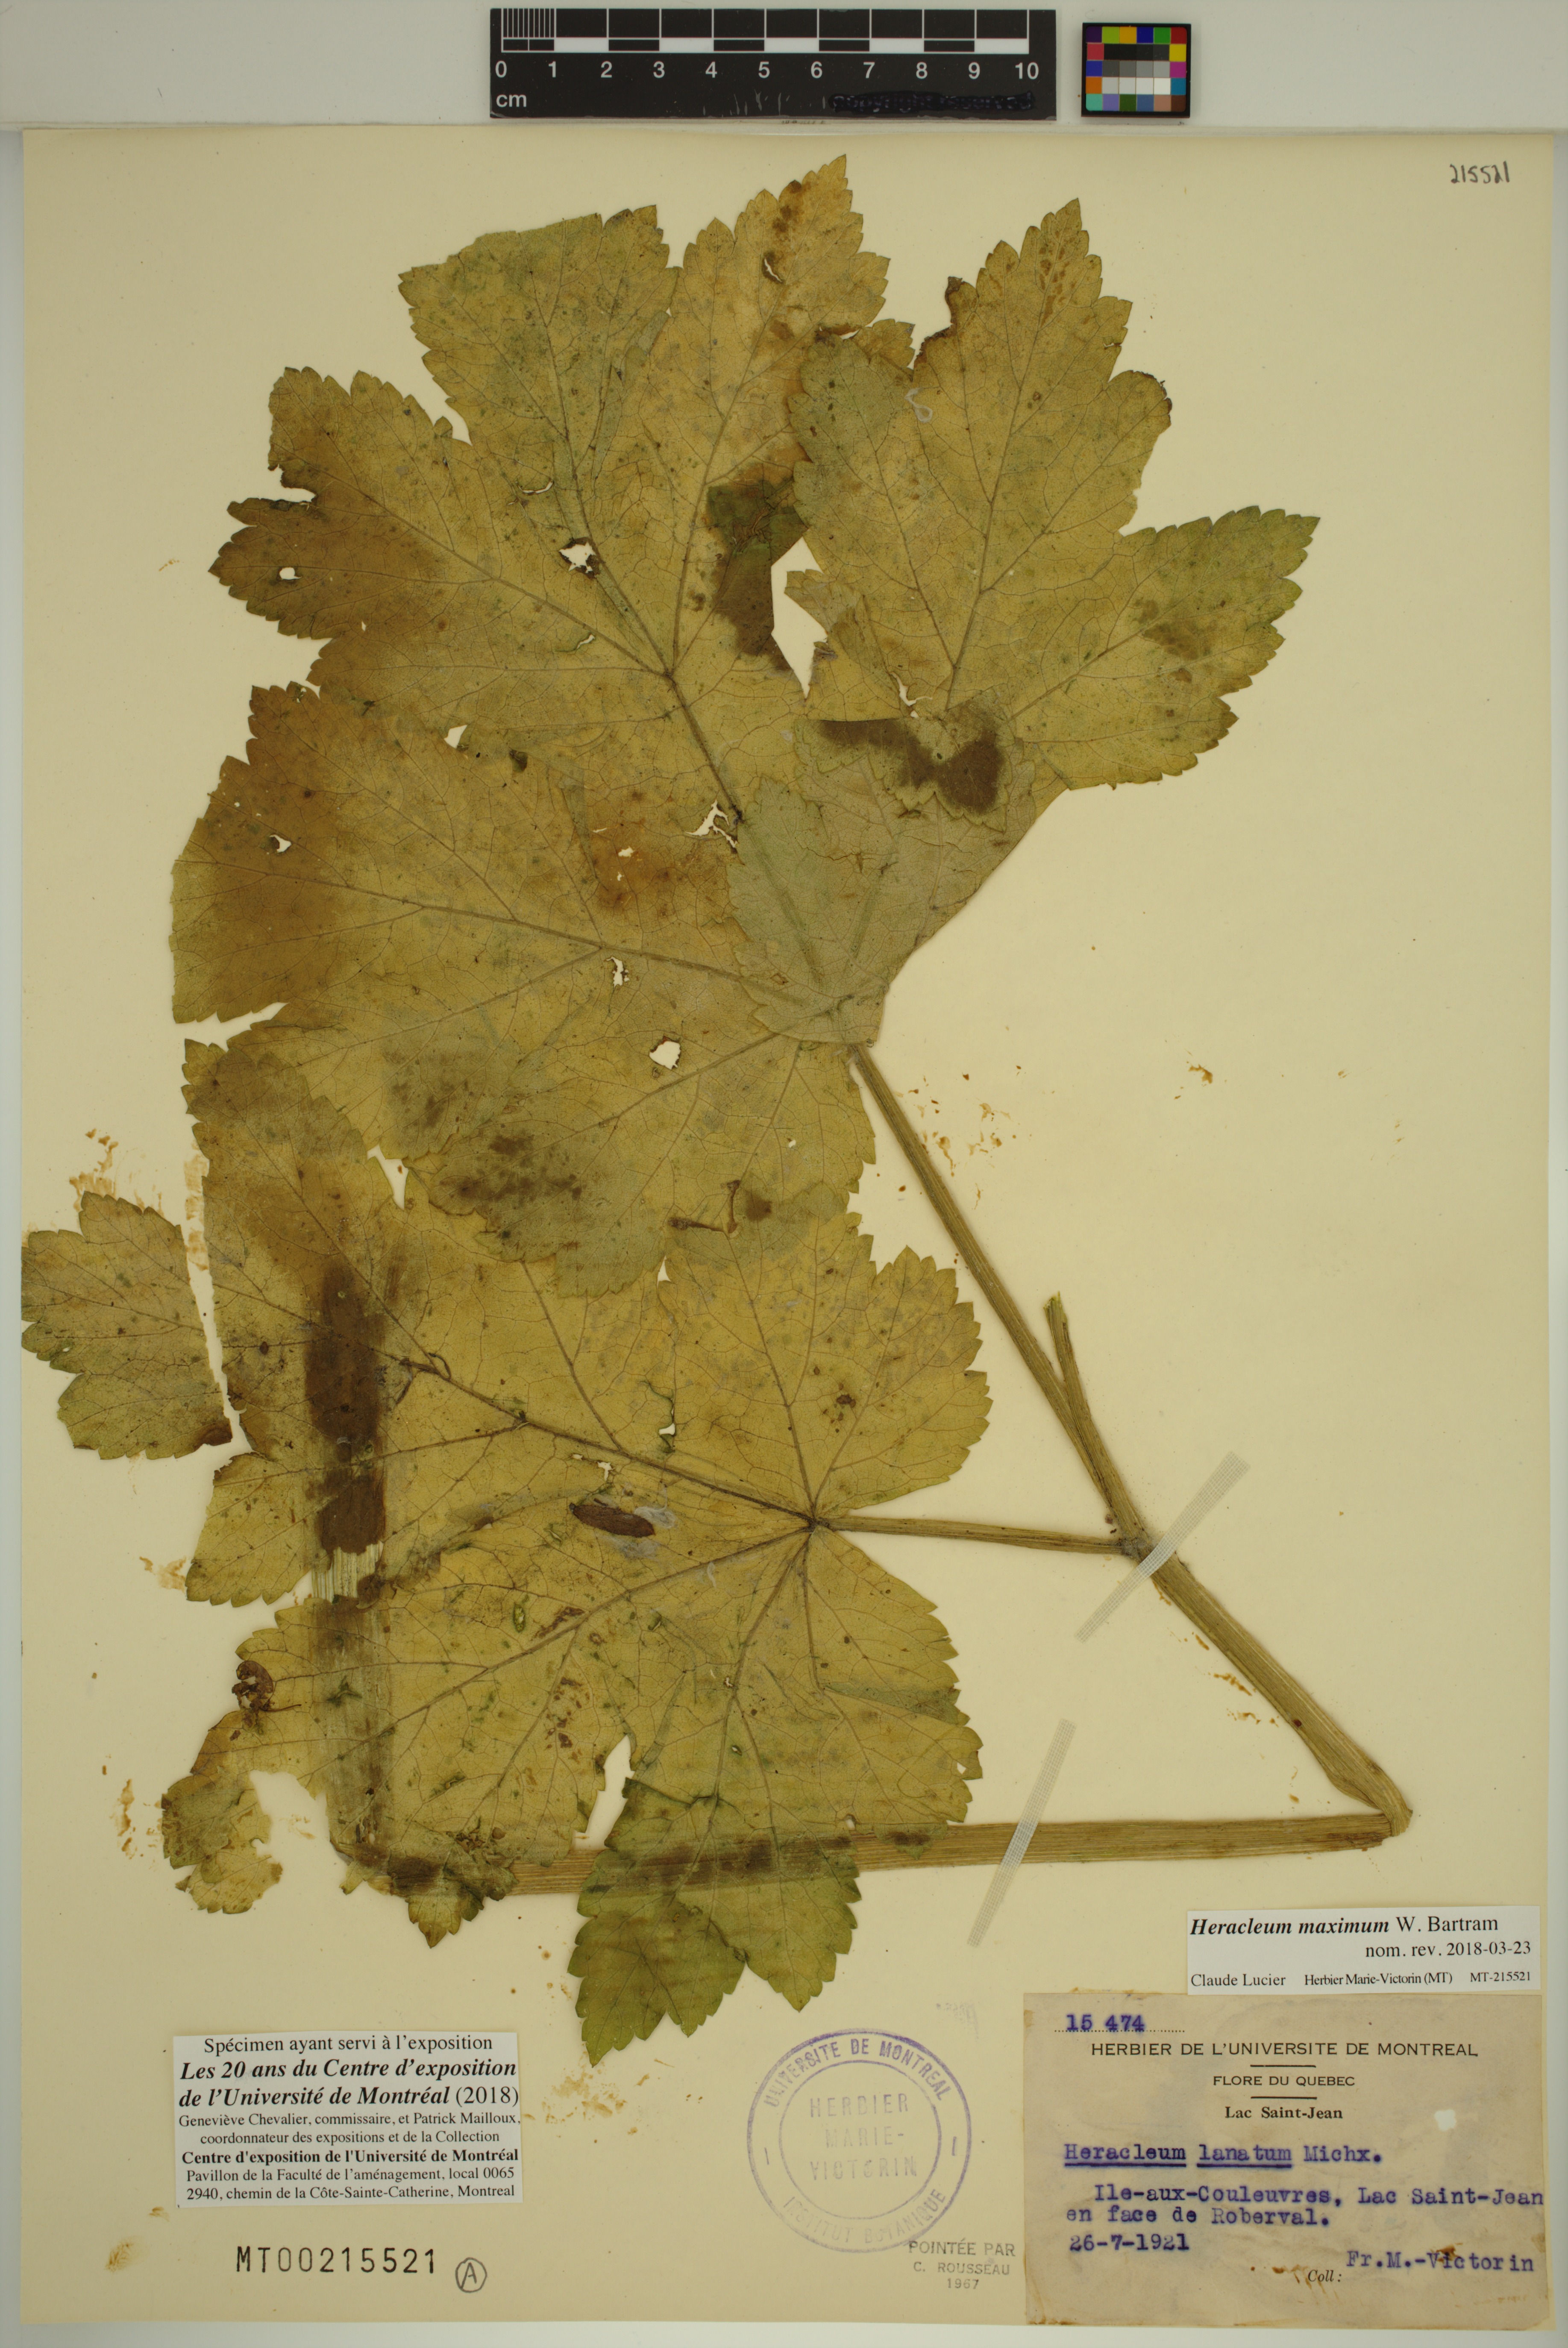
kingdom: Plantae
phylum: Tracheophyta
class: Magnoliopsida
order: Apiales
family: Apiaceae
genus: Heracleum
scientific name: Heracleum maximum
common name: American cow parsnip
